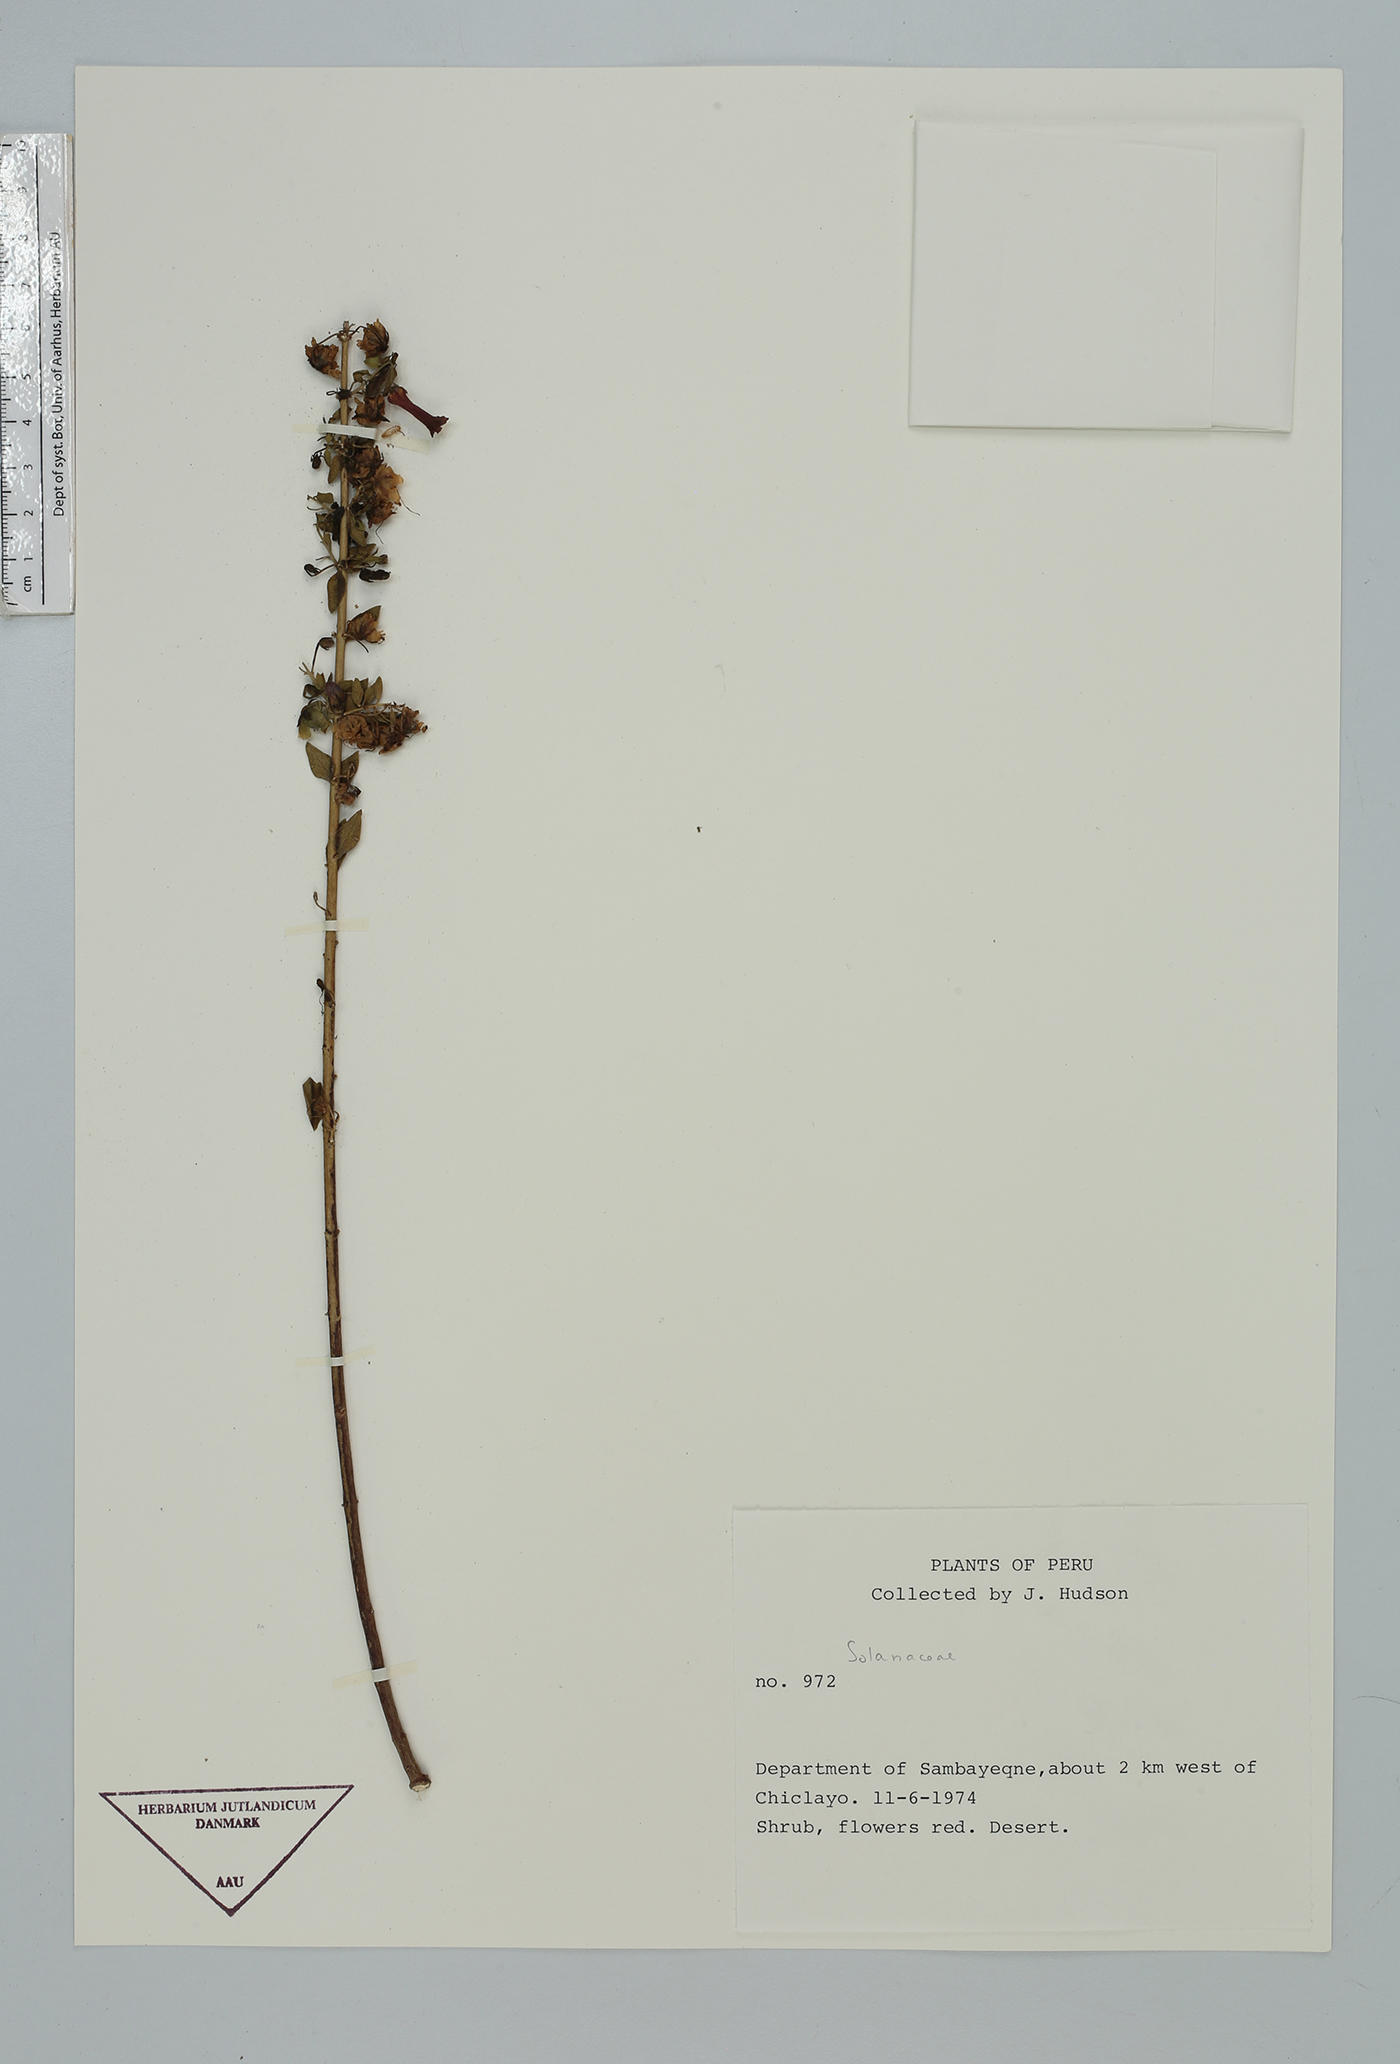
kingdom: Plantae
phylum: Tracheophyta
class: Magnoliopsida
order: Solanales
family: Solanaceae
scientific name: Solanaceae
